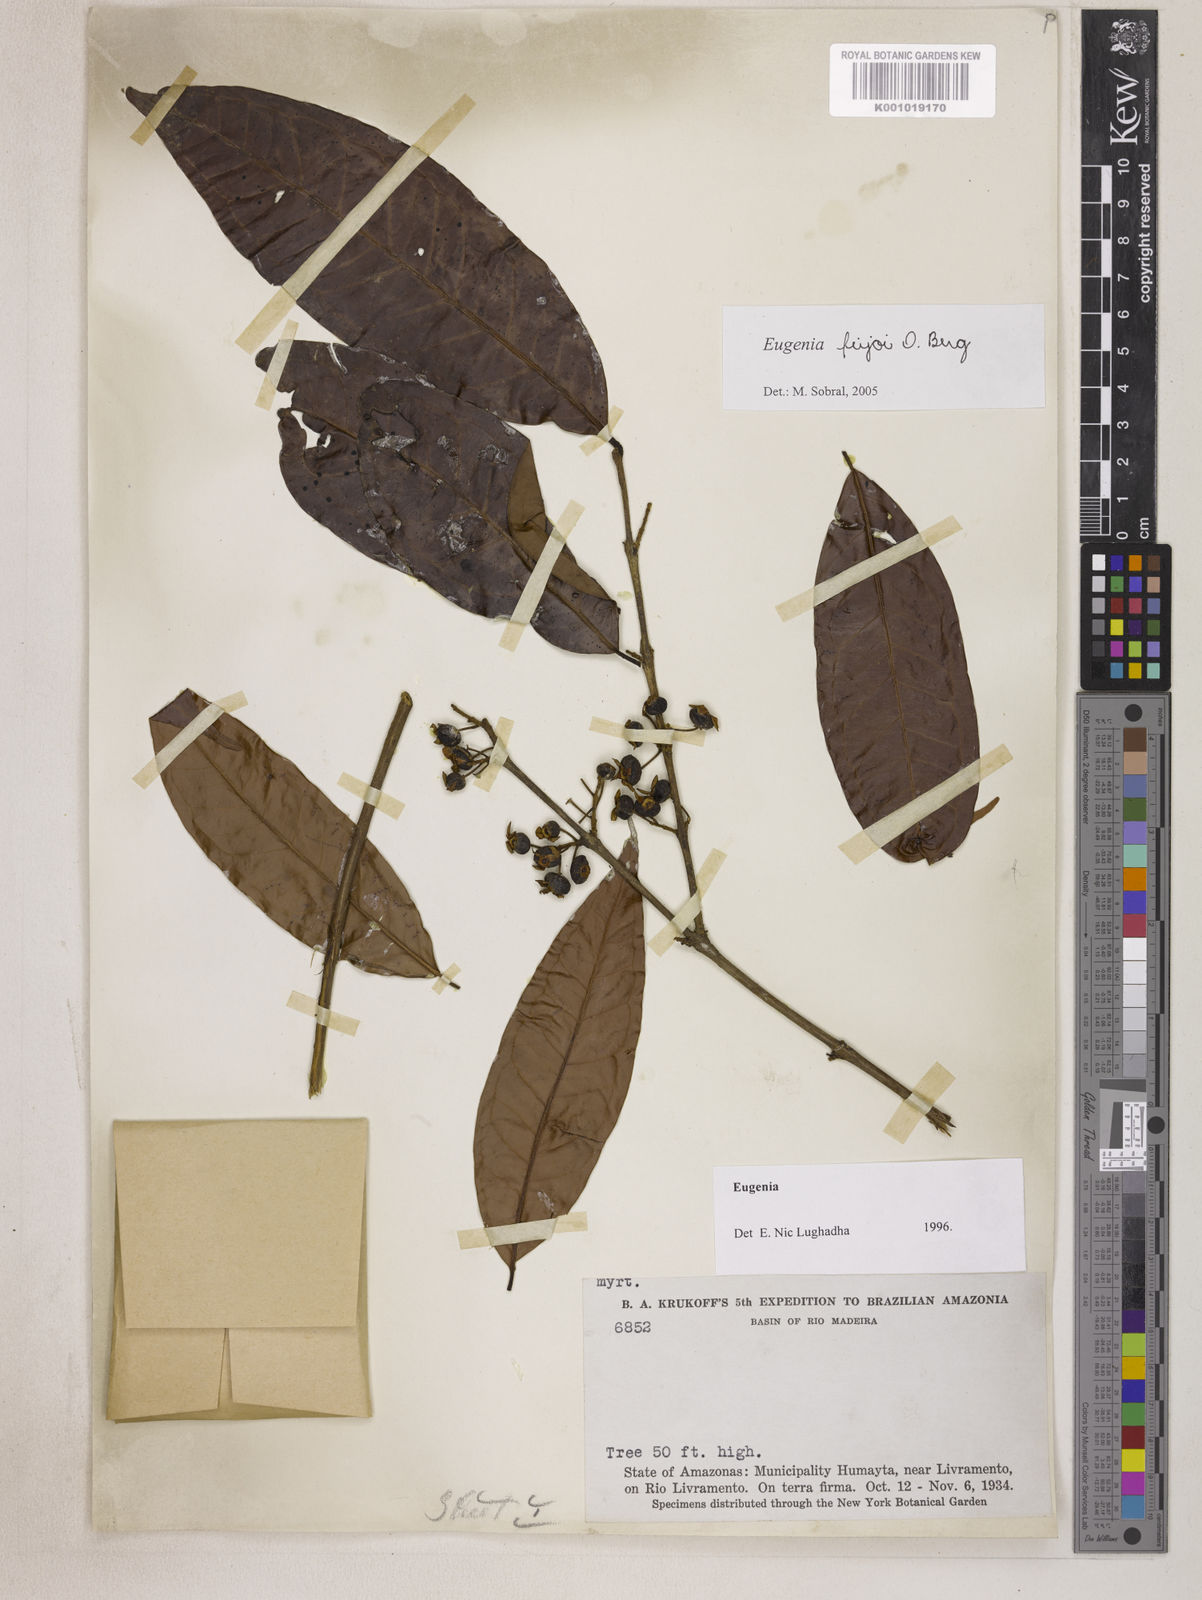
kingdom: Plantae
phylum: Tracheophyta
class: Magnoliopsida
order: Myrtales
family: Myrtaceae
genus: Eugenia
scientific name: Eugenia moschata
